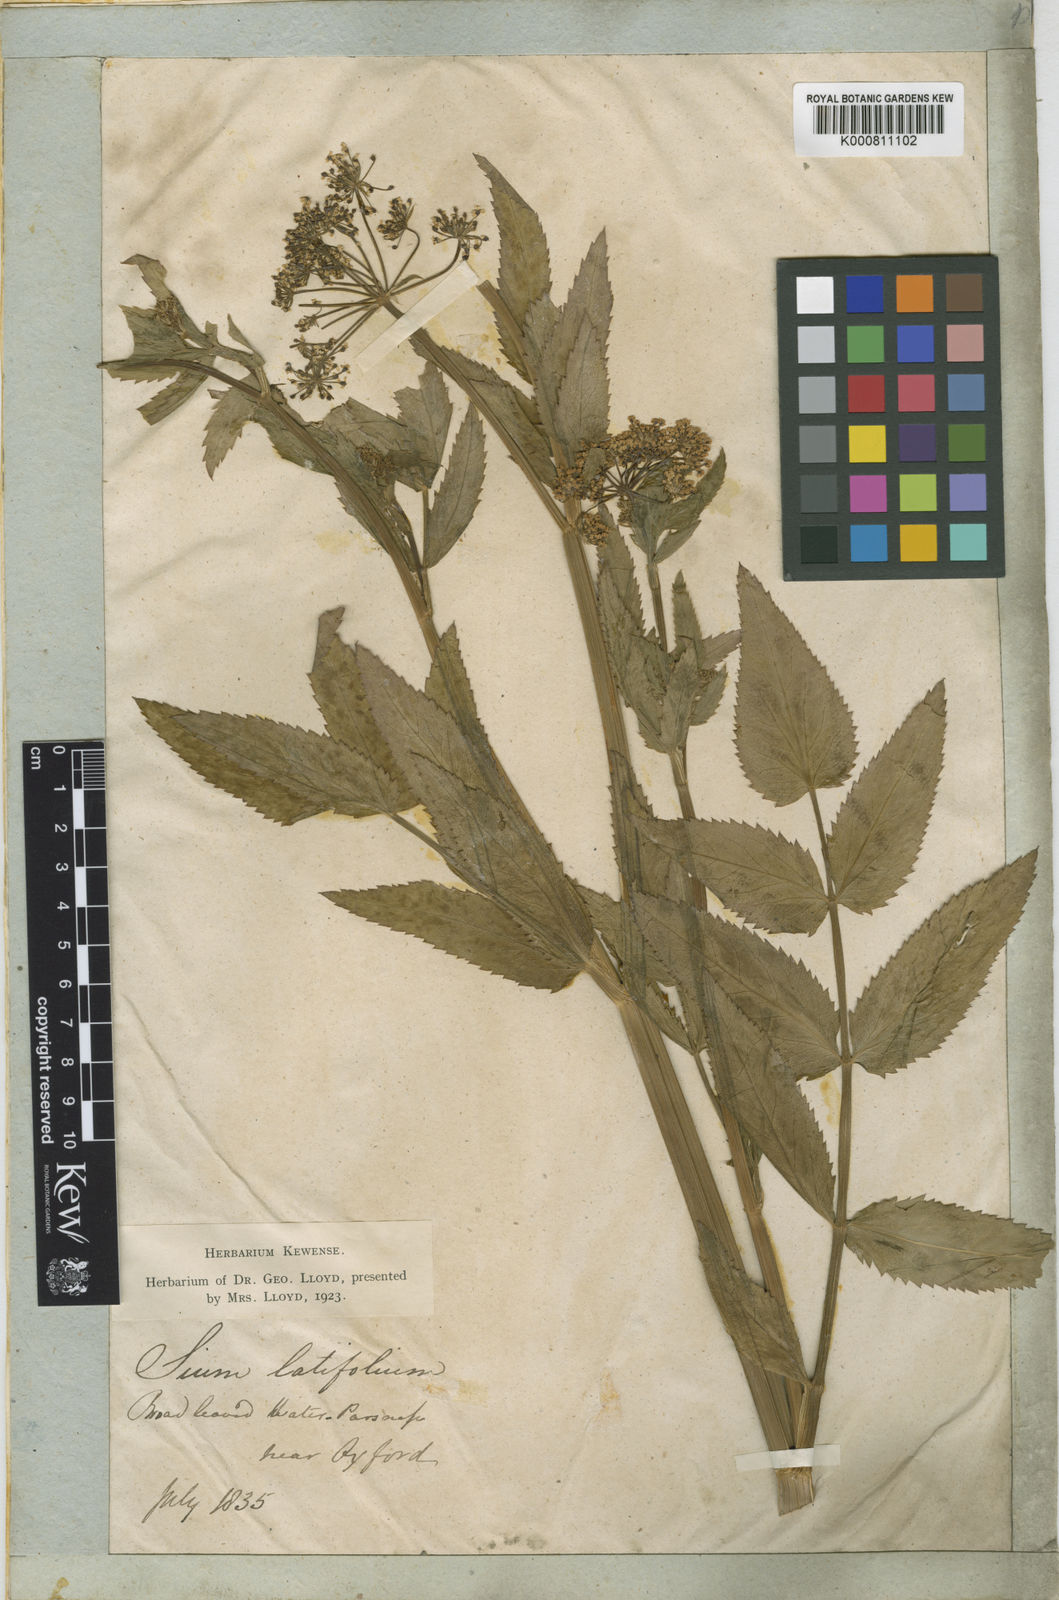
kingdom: Plantae
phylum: Tracheophyta
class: Magnoliopsida
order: Apiales
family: Apiaceae
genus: Sium
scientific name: Sium latifolium
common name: Greater water-parsnip
